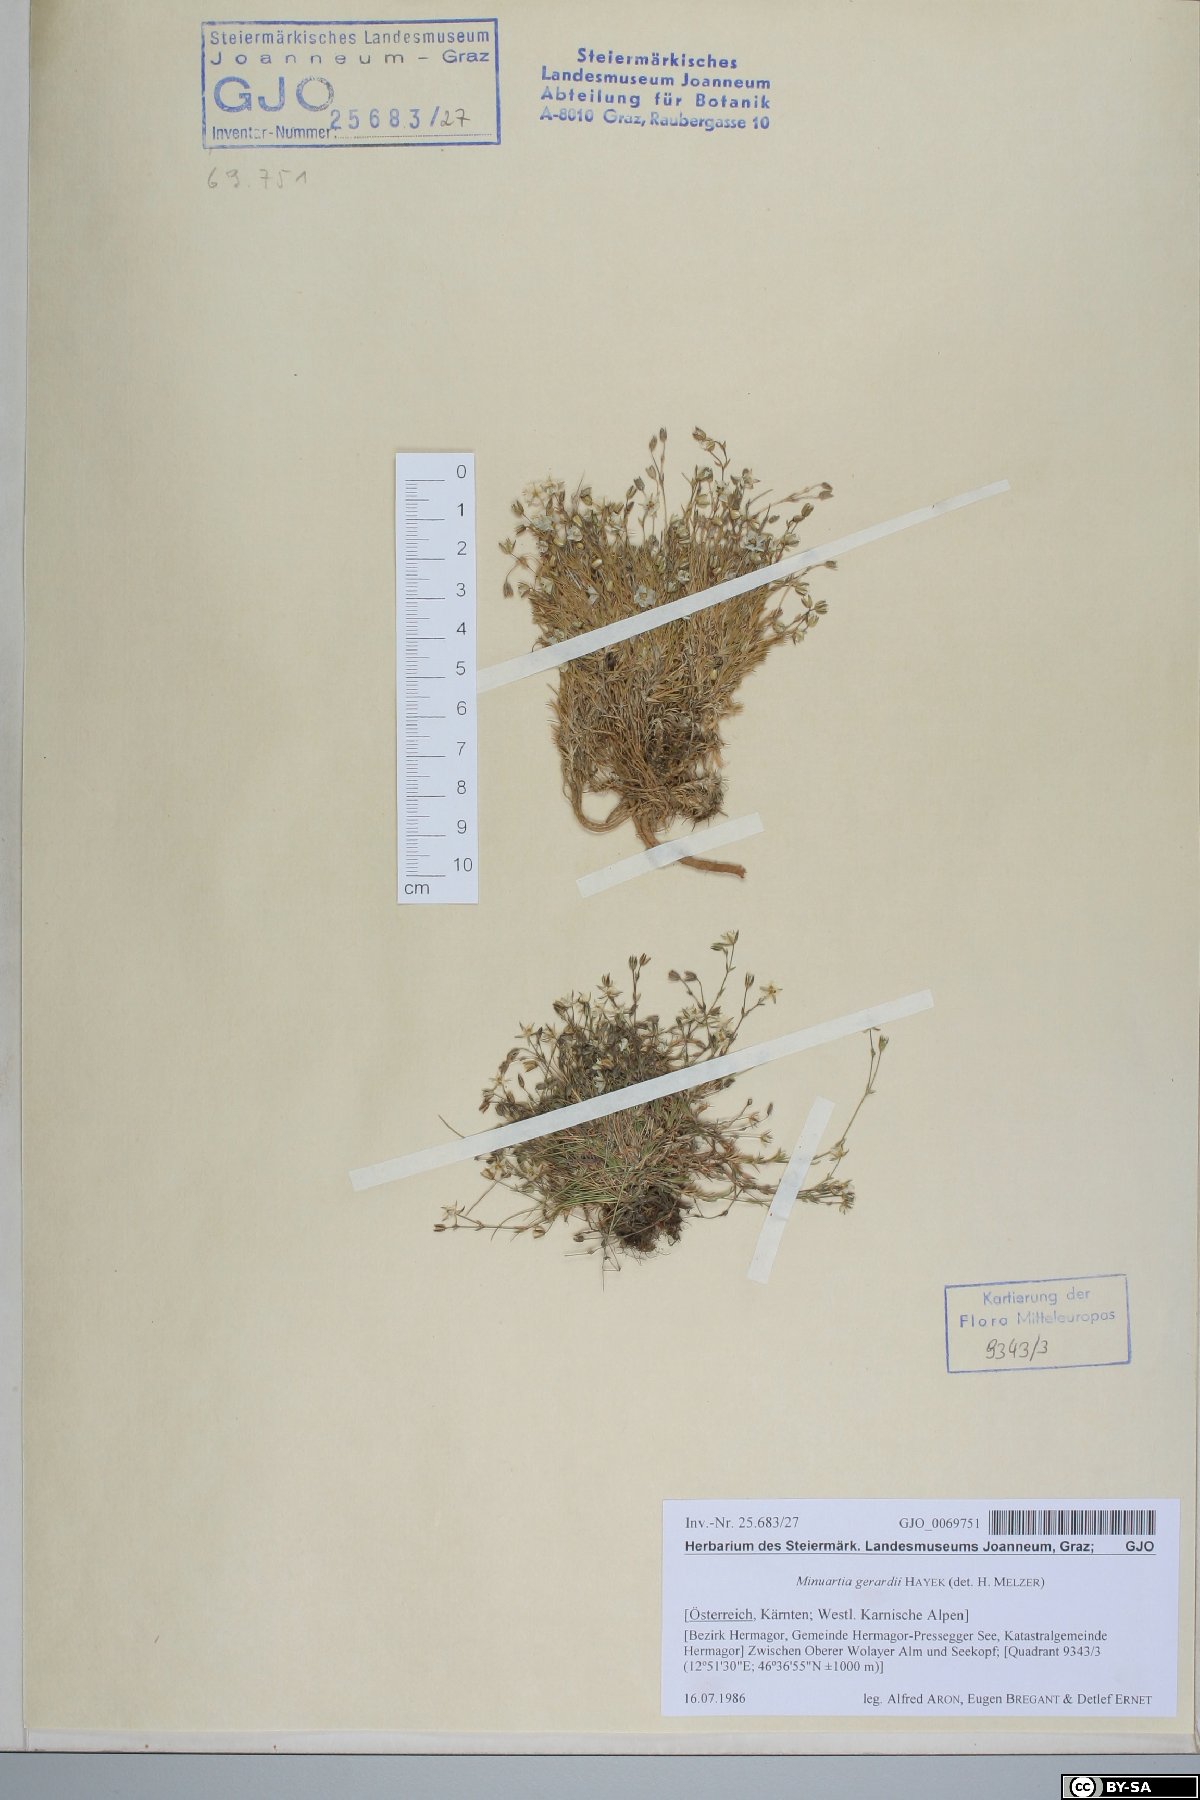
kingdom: Plantae
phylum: Tracheophyta
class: Magnoliopsida
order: Caryophyllales
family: Caryophyllaceae
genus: Sabulina
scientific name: Sabulina verna
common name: Spring sandwort
